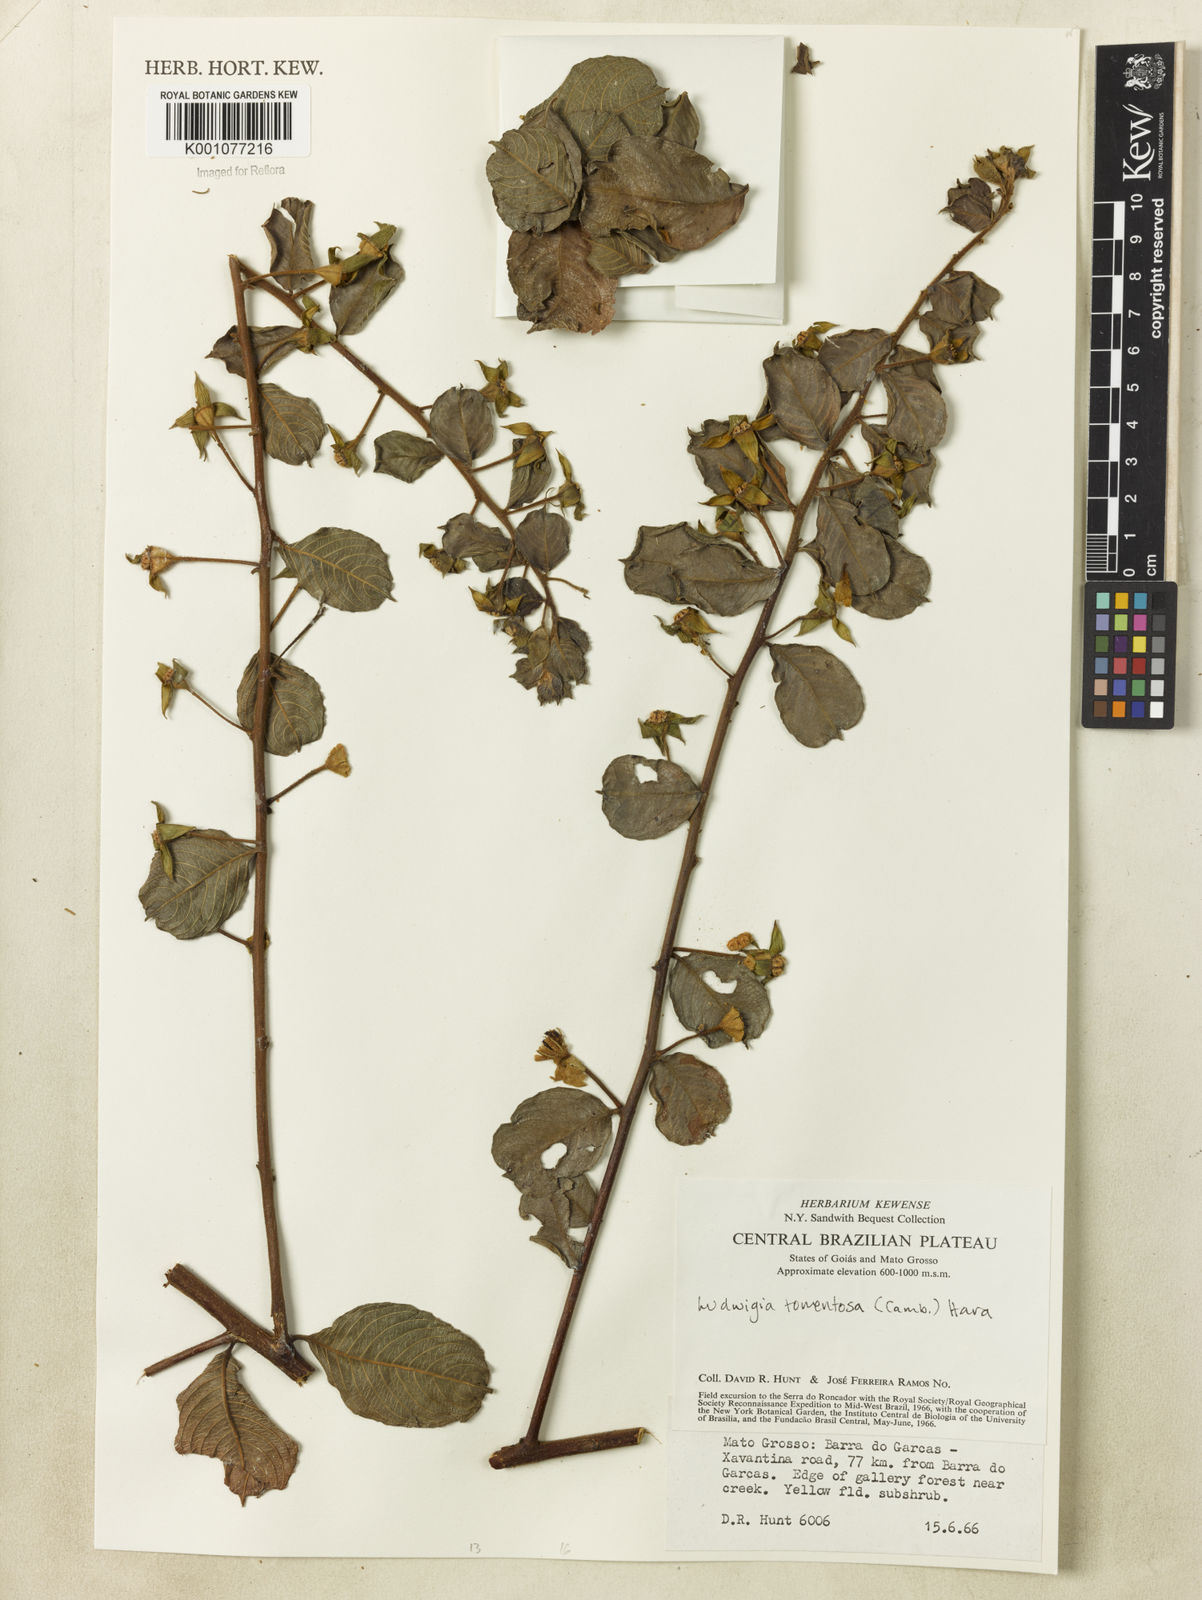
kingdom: Plantae
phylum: Tracheophyta
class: Magnoliopsida
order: Myrtales
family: Onagraceae
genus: Ludwigia
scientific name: Ludwigia tomentosa
